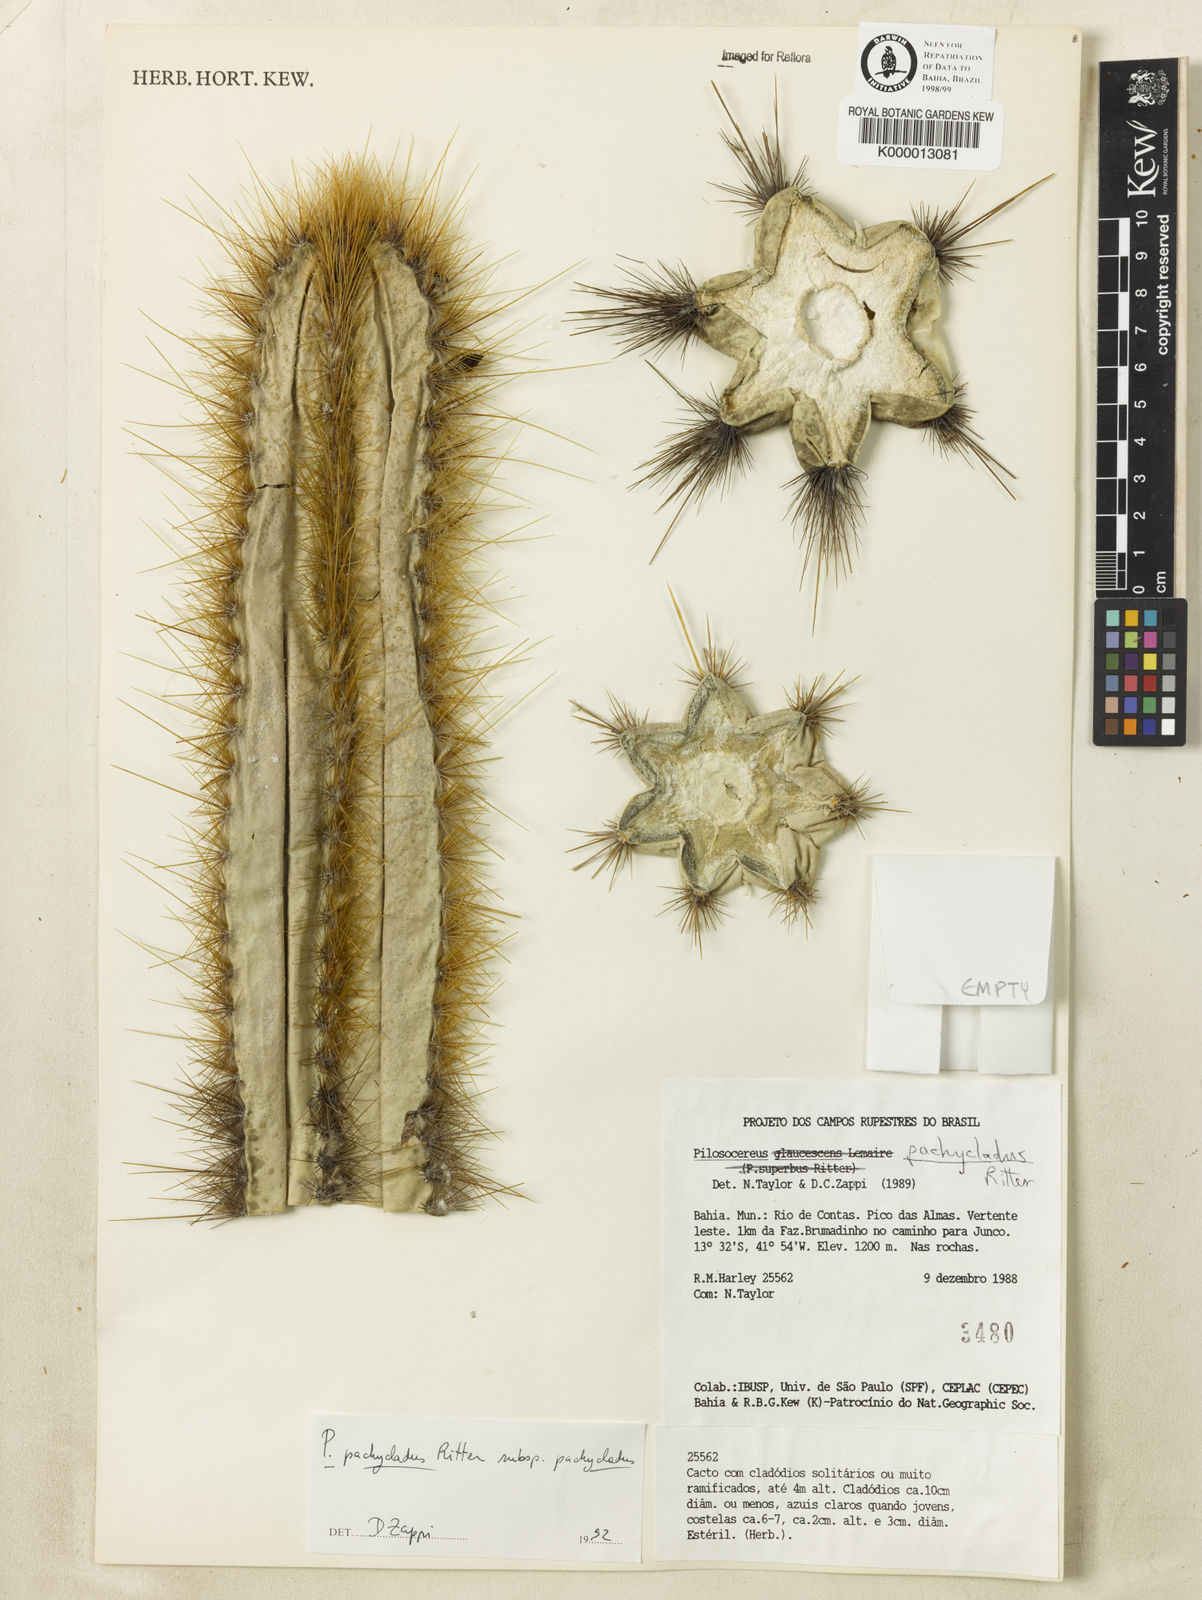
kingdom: Plantae
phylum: Tracheophyta
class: Magnoliopsida
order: Caryophyllales
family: Cactaceae
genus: Pilosocereus
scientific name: Pilosocereus pachycladus
